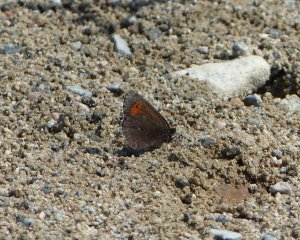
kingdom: Animalia
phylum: Arthropoda
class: Insecta
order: Lepidoptera
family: Nymphalidae
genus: Erebia
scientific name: Erebia disa
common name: Taiga Alpine
